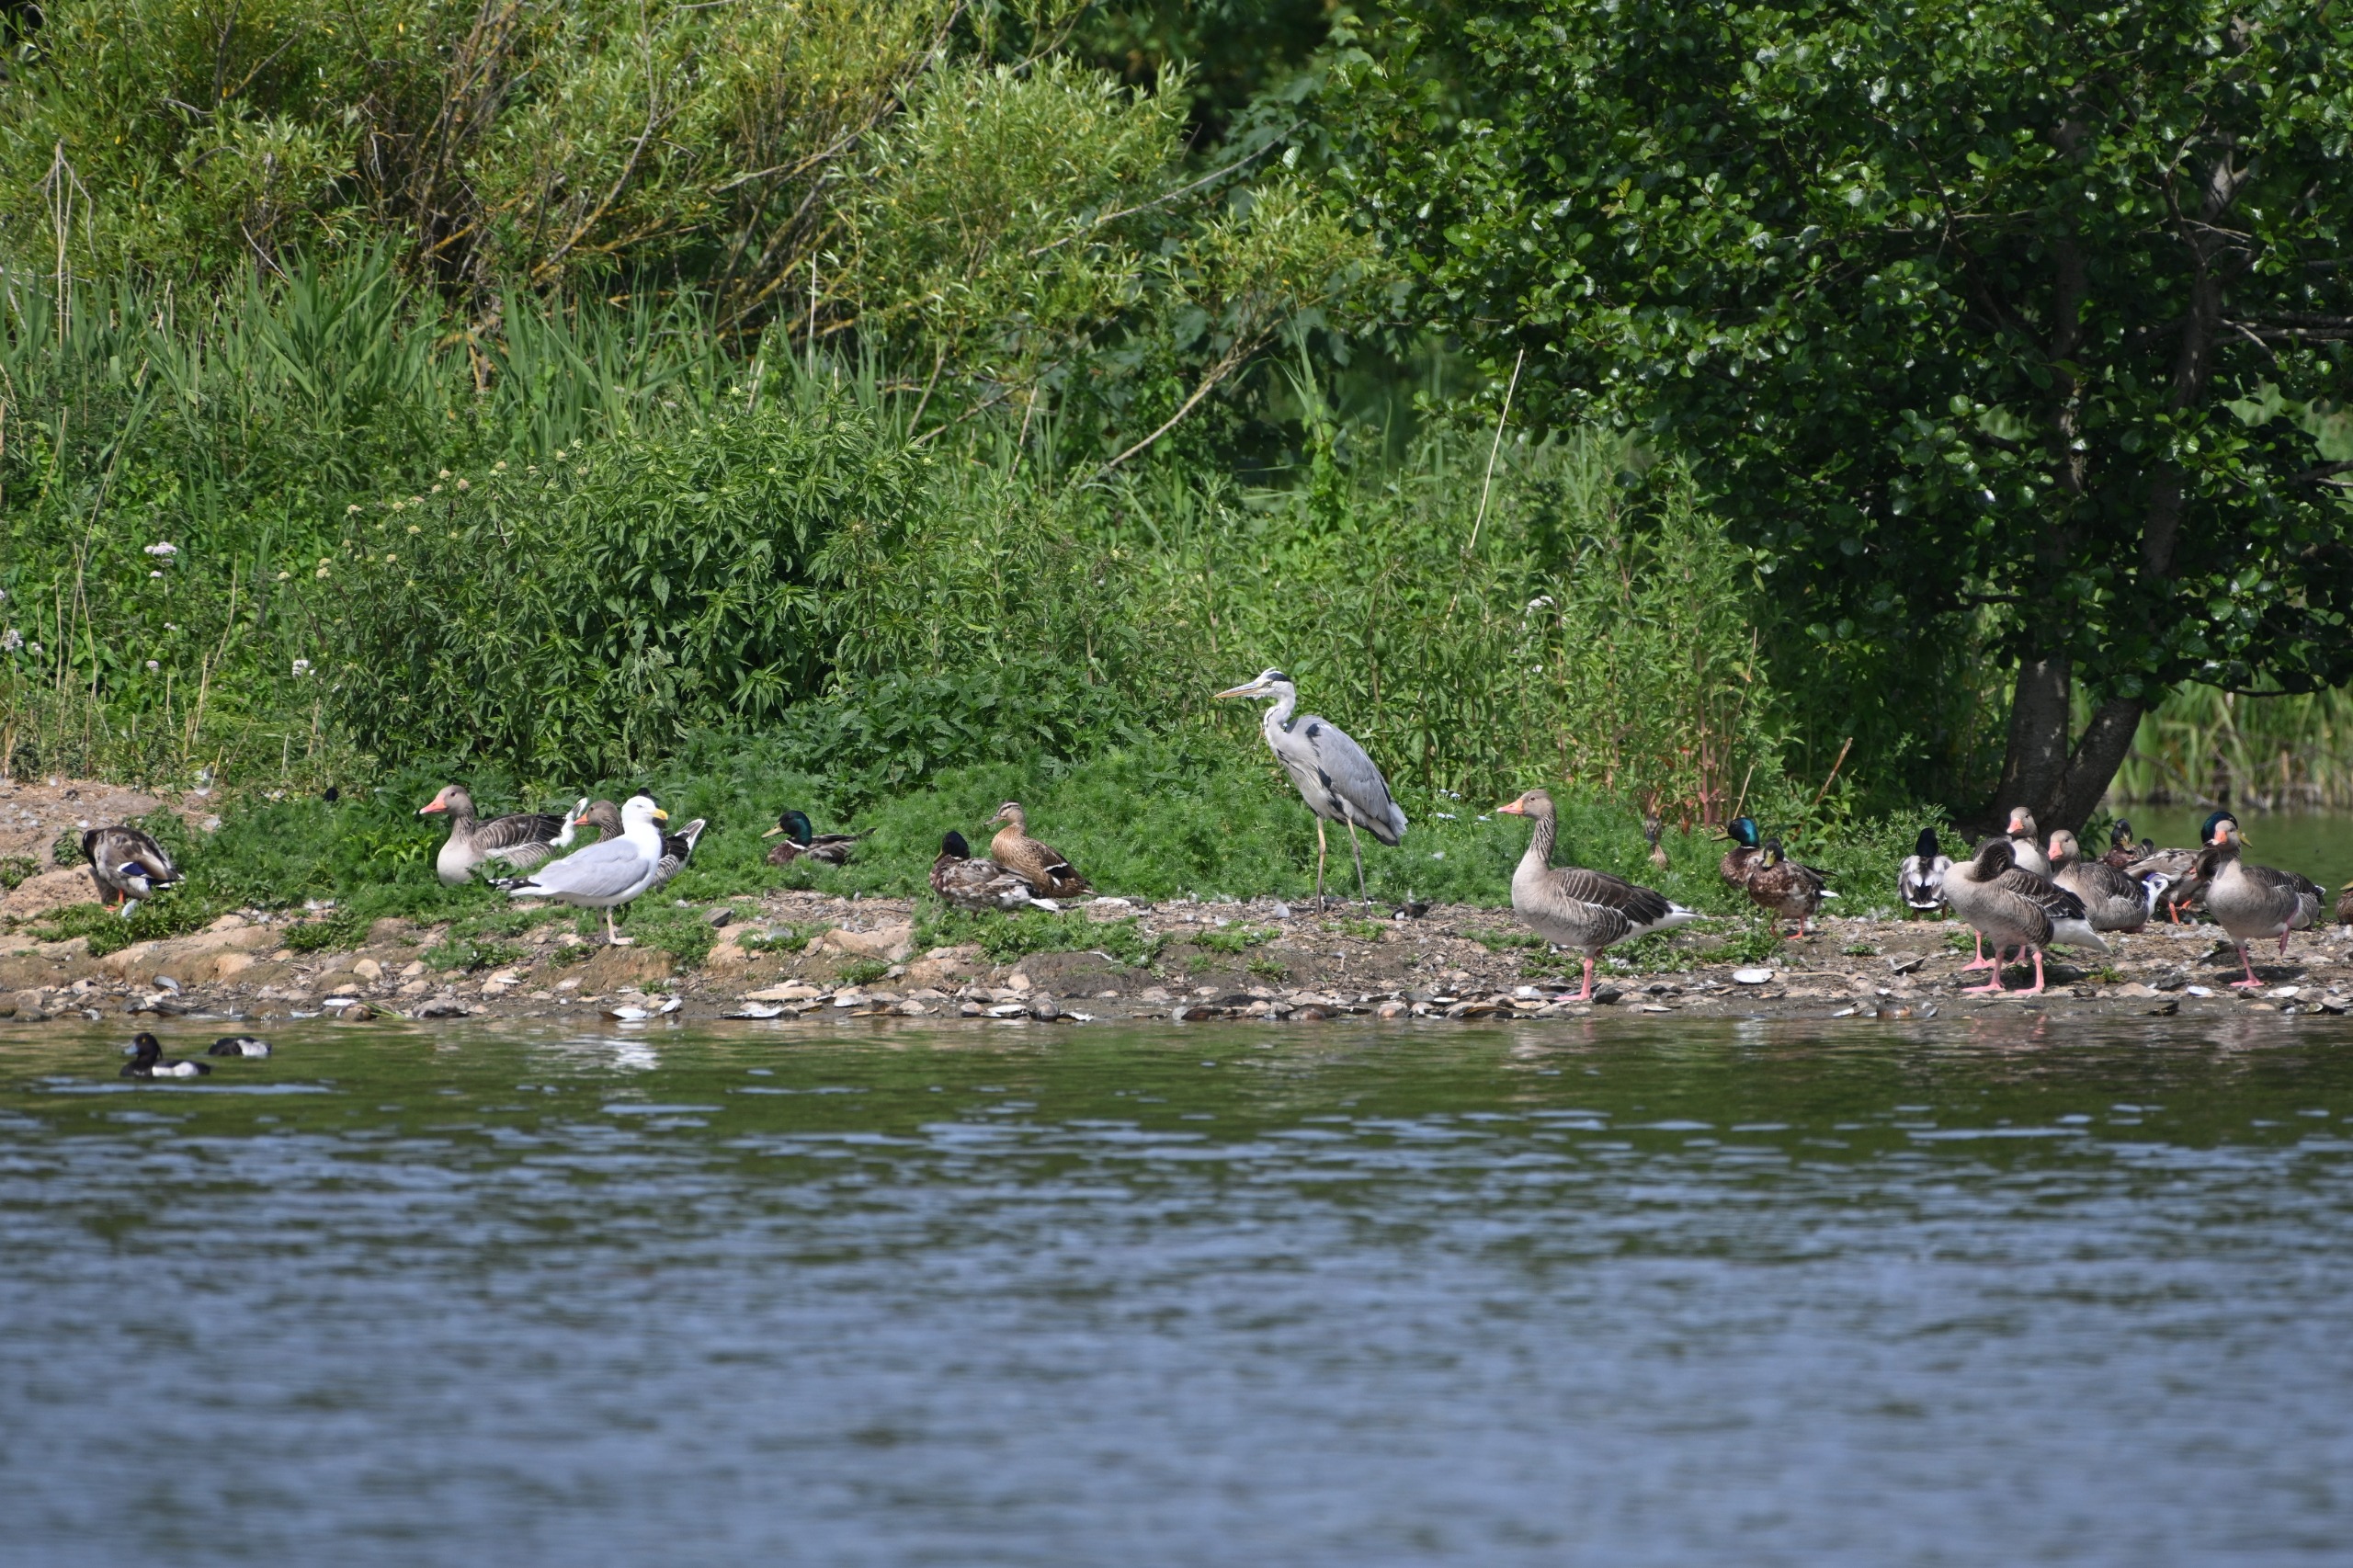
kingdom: Animalia
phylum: Chordata
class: Aves
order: Pelecaniformes
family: Ardeidae
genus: Ardea
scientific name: Ardea cinerea
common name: Fiskehejre
